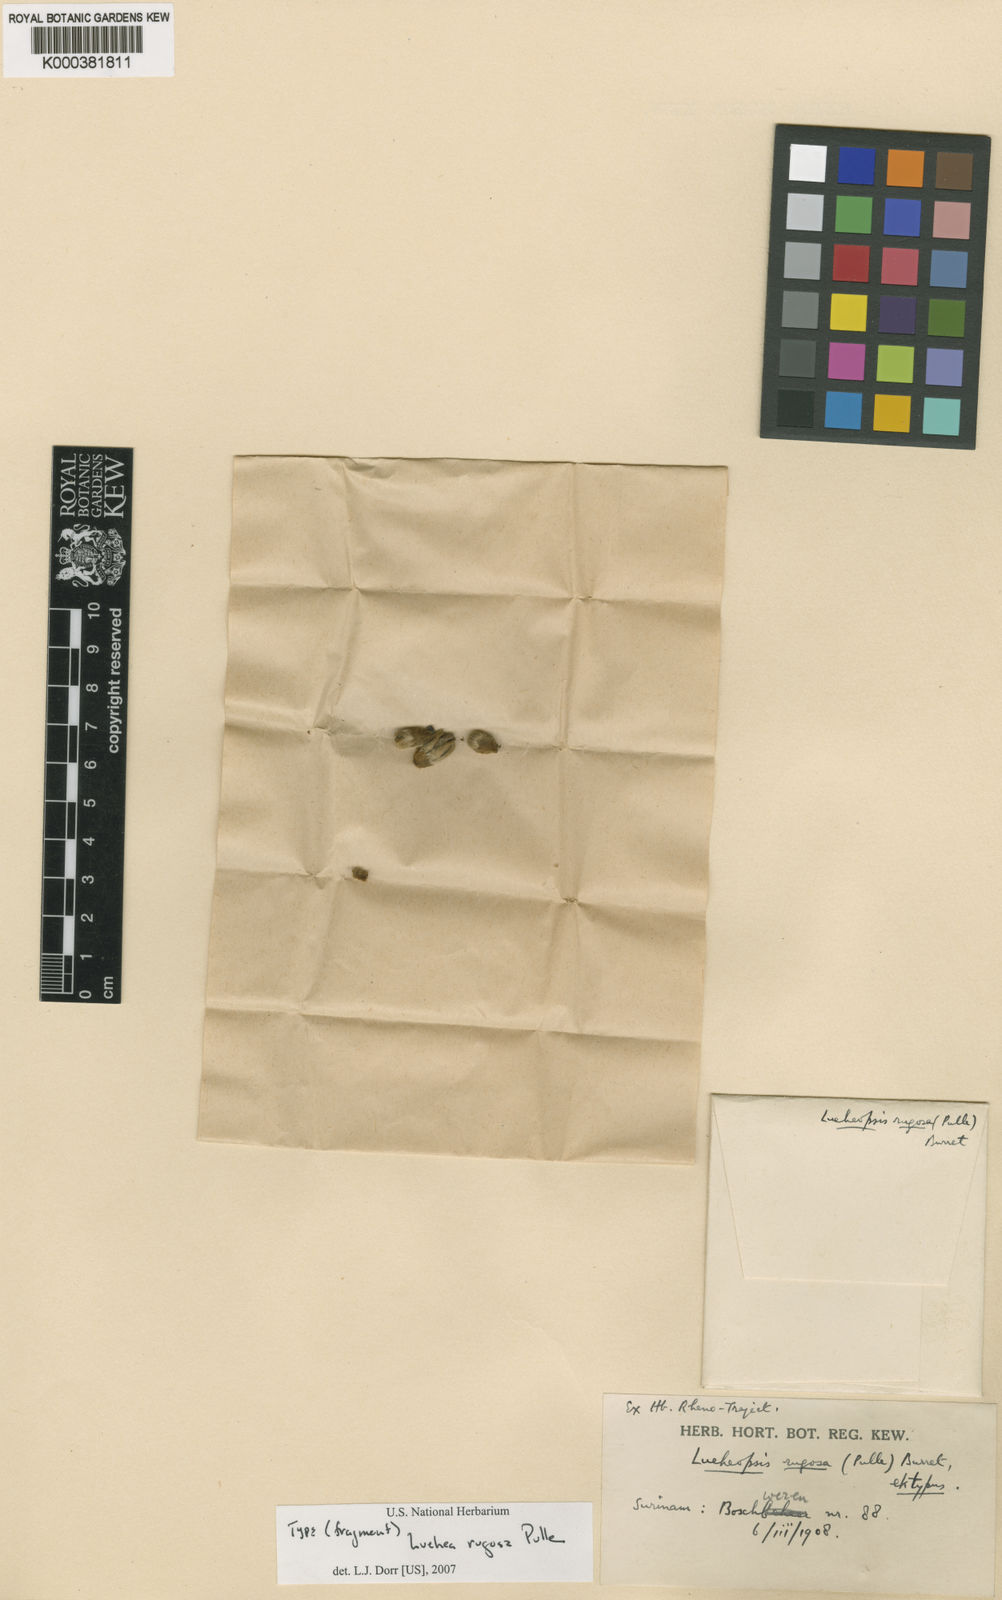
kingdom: Plantae
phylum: Tracheophyta
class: Magnoliopsida
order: Malvales
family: Malvaceae
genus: Lueheopsis
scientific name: Lueheopsis rugosa
